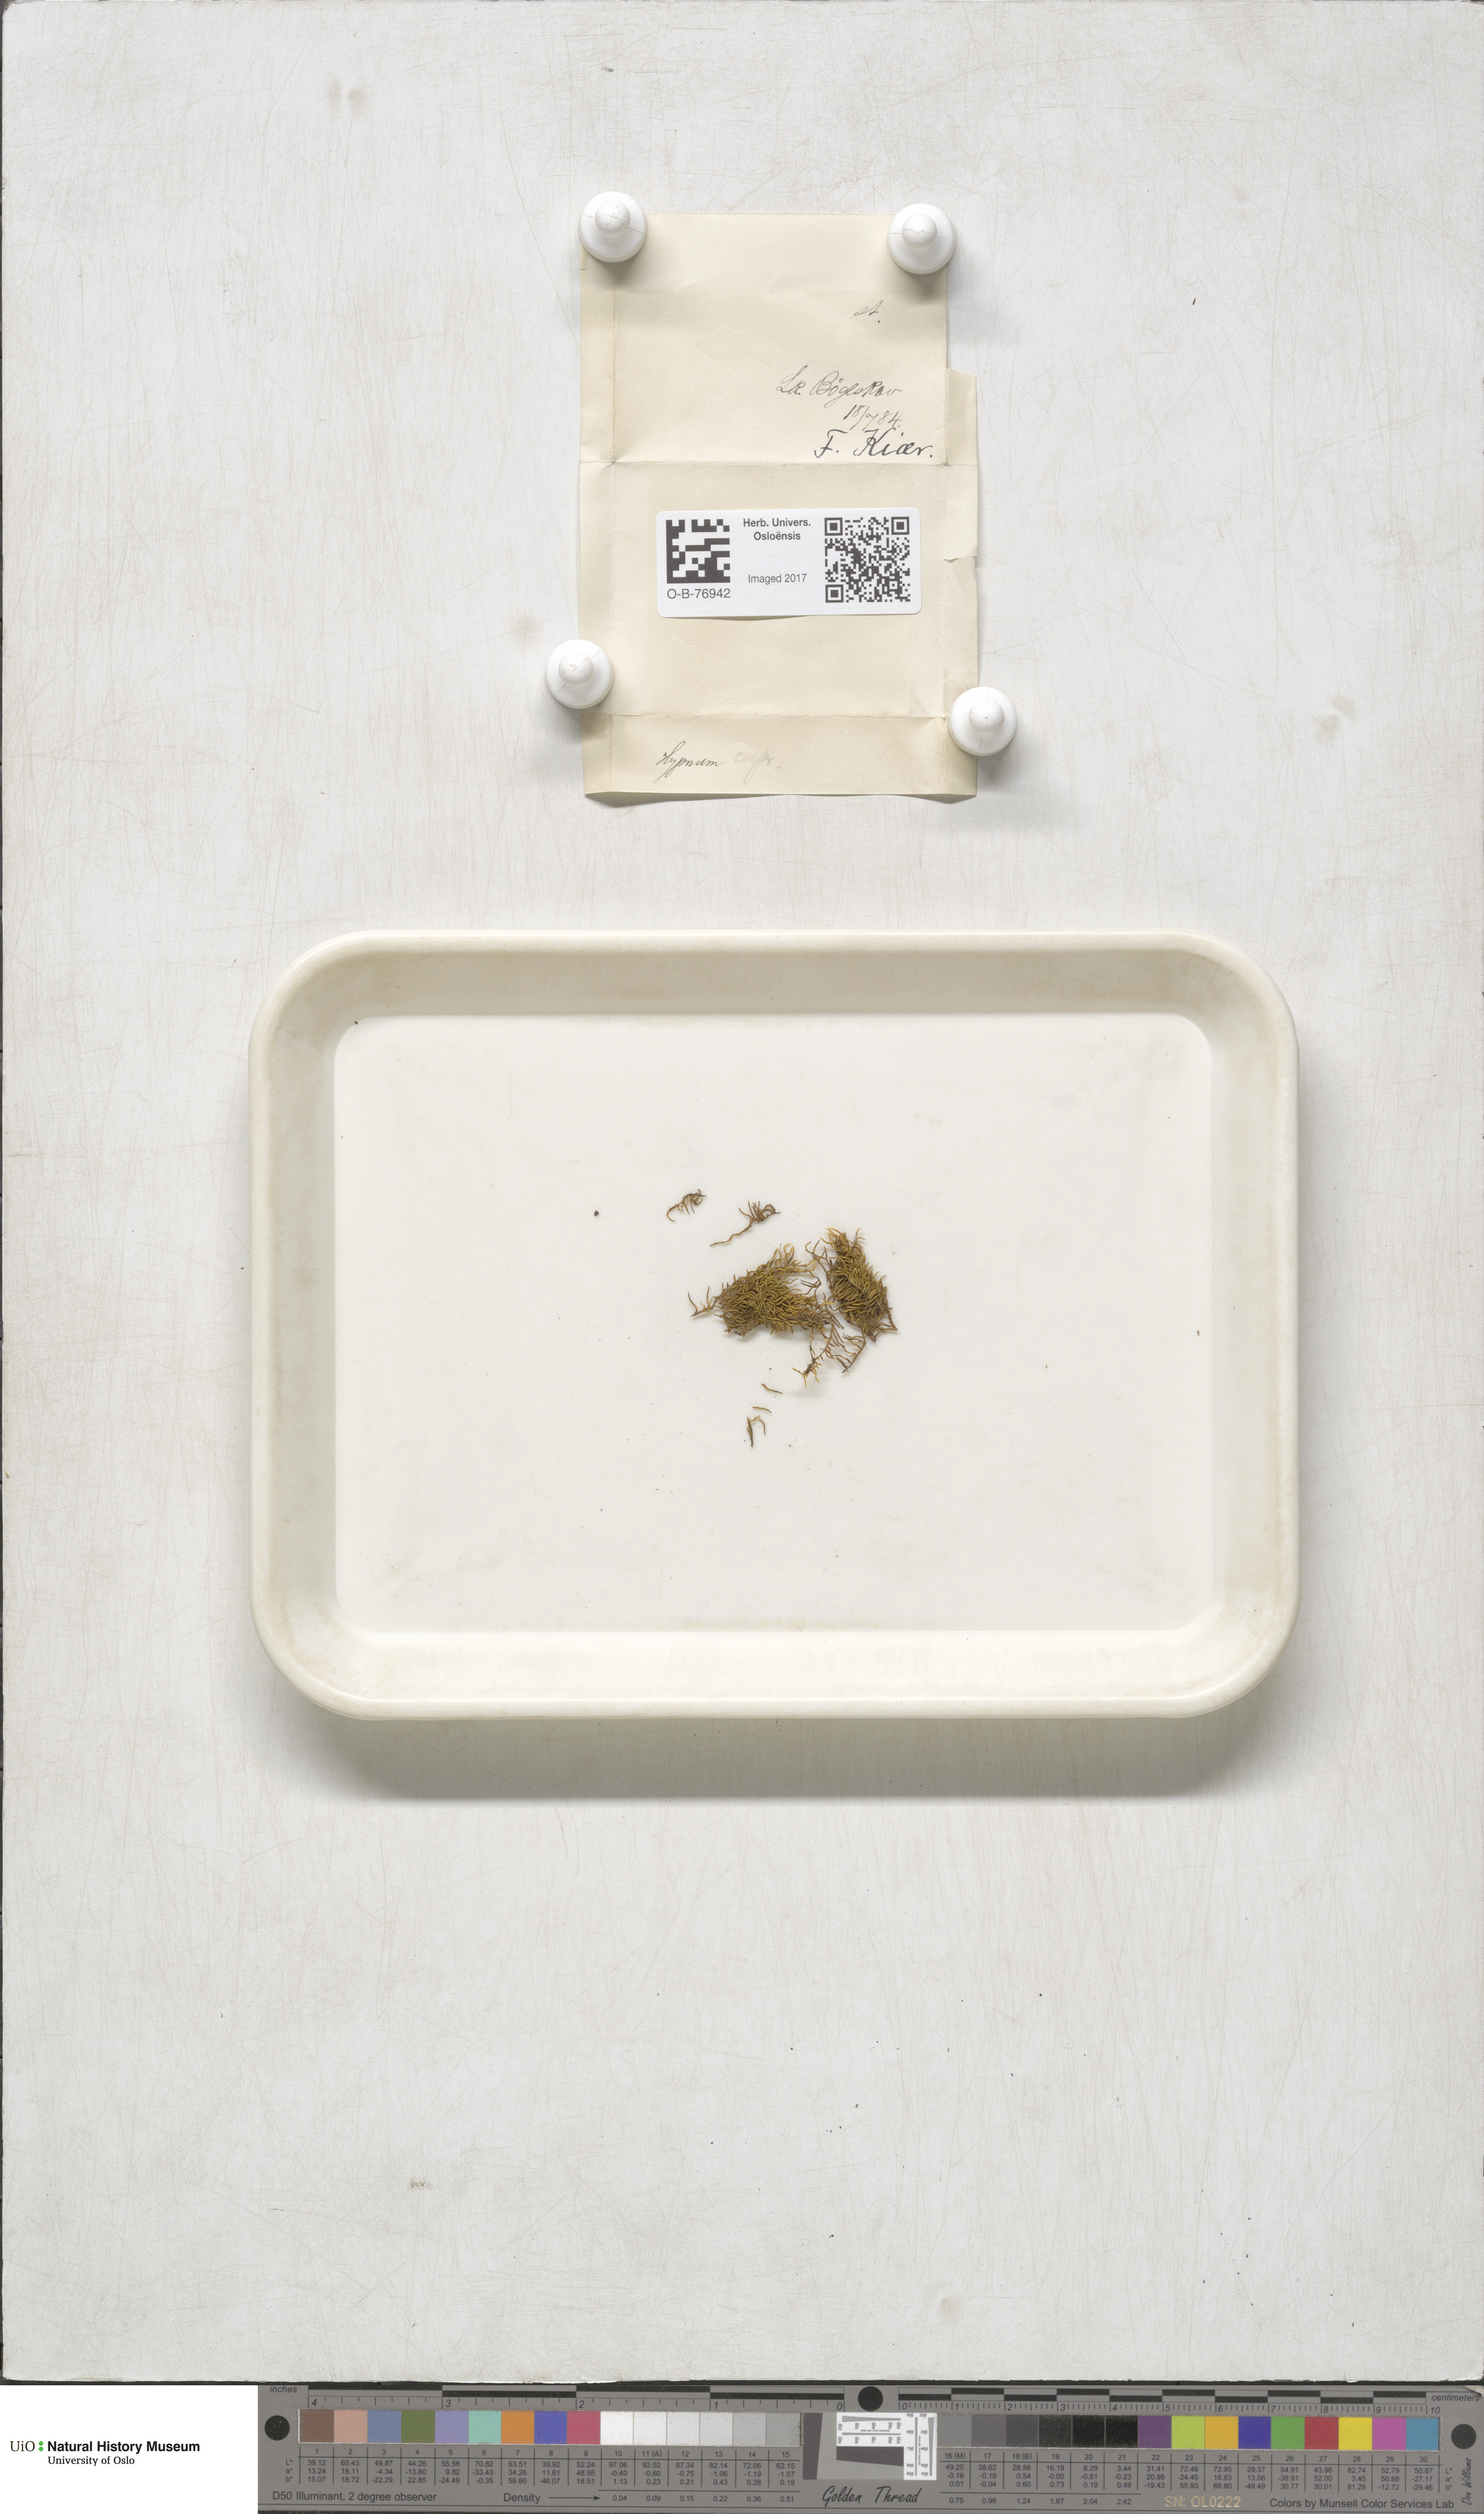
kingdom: Plantae
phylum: Bryophyta
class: Bryopsida
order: Hypnales
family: Hypnaceae
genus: Hypnum
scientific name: Hypnum cupressiforme
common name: Cypress-leaved plait-moss
